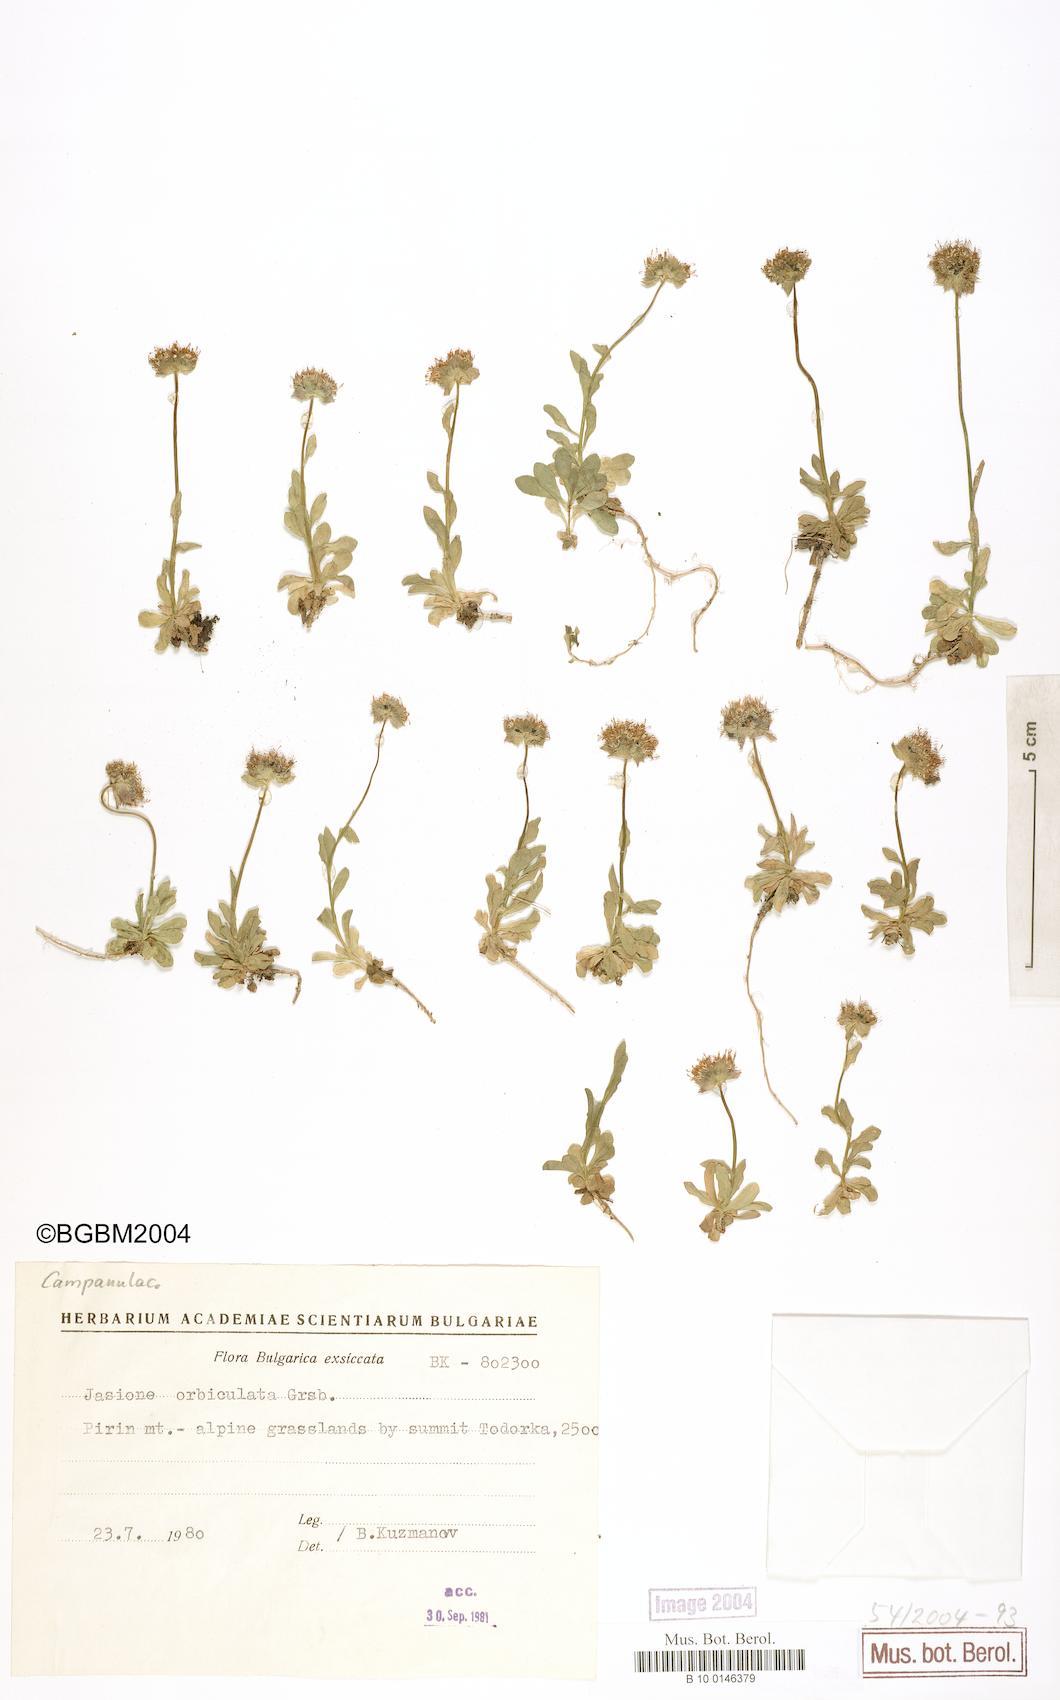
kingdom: Plantae
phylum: Tracheophyta
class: Magnoliopsida
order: Asterales
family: Campanulaceae
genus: Jasione
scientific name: Jasione orbiculata
